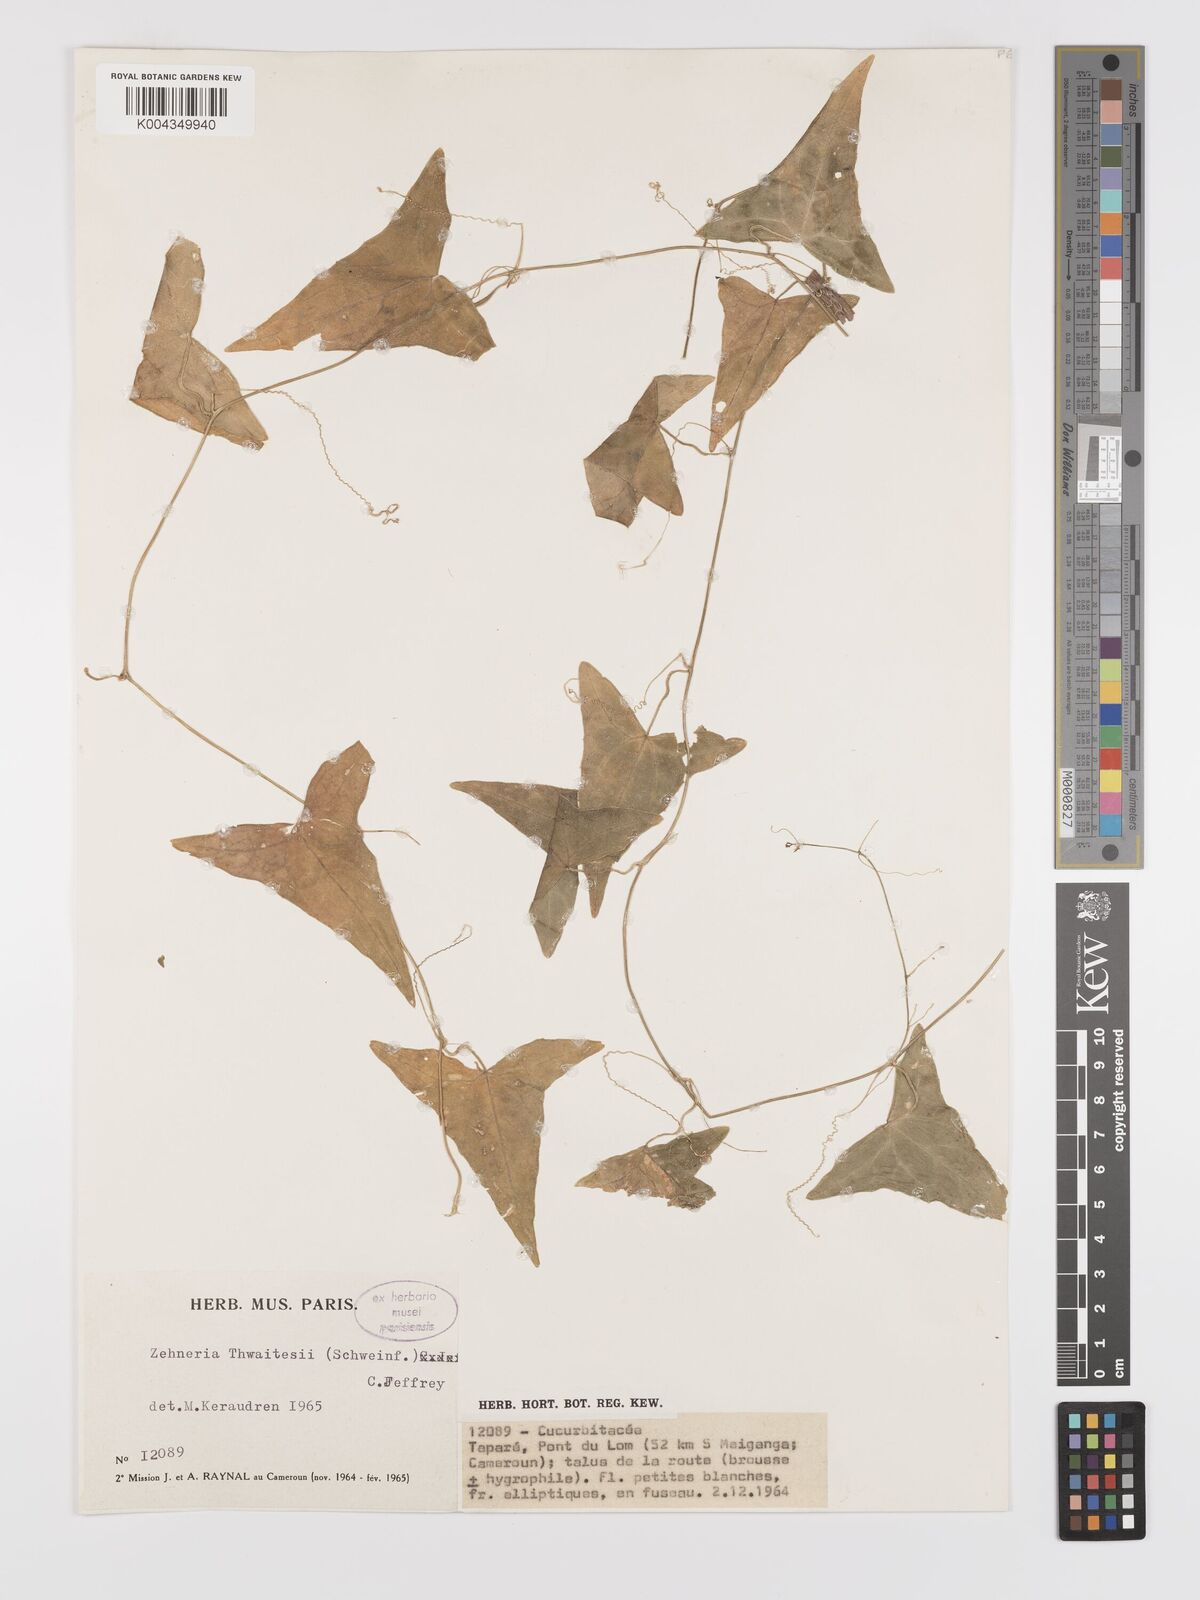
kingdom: Plantae
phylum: Tracheophyta
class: Magnoliopsida
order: Cucurbitales
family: Cucurbitaceae
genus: Zehneria
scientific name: Zehneria thwaitesii
